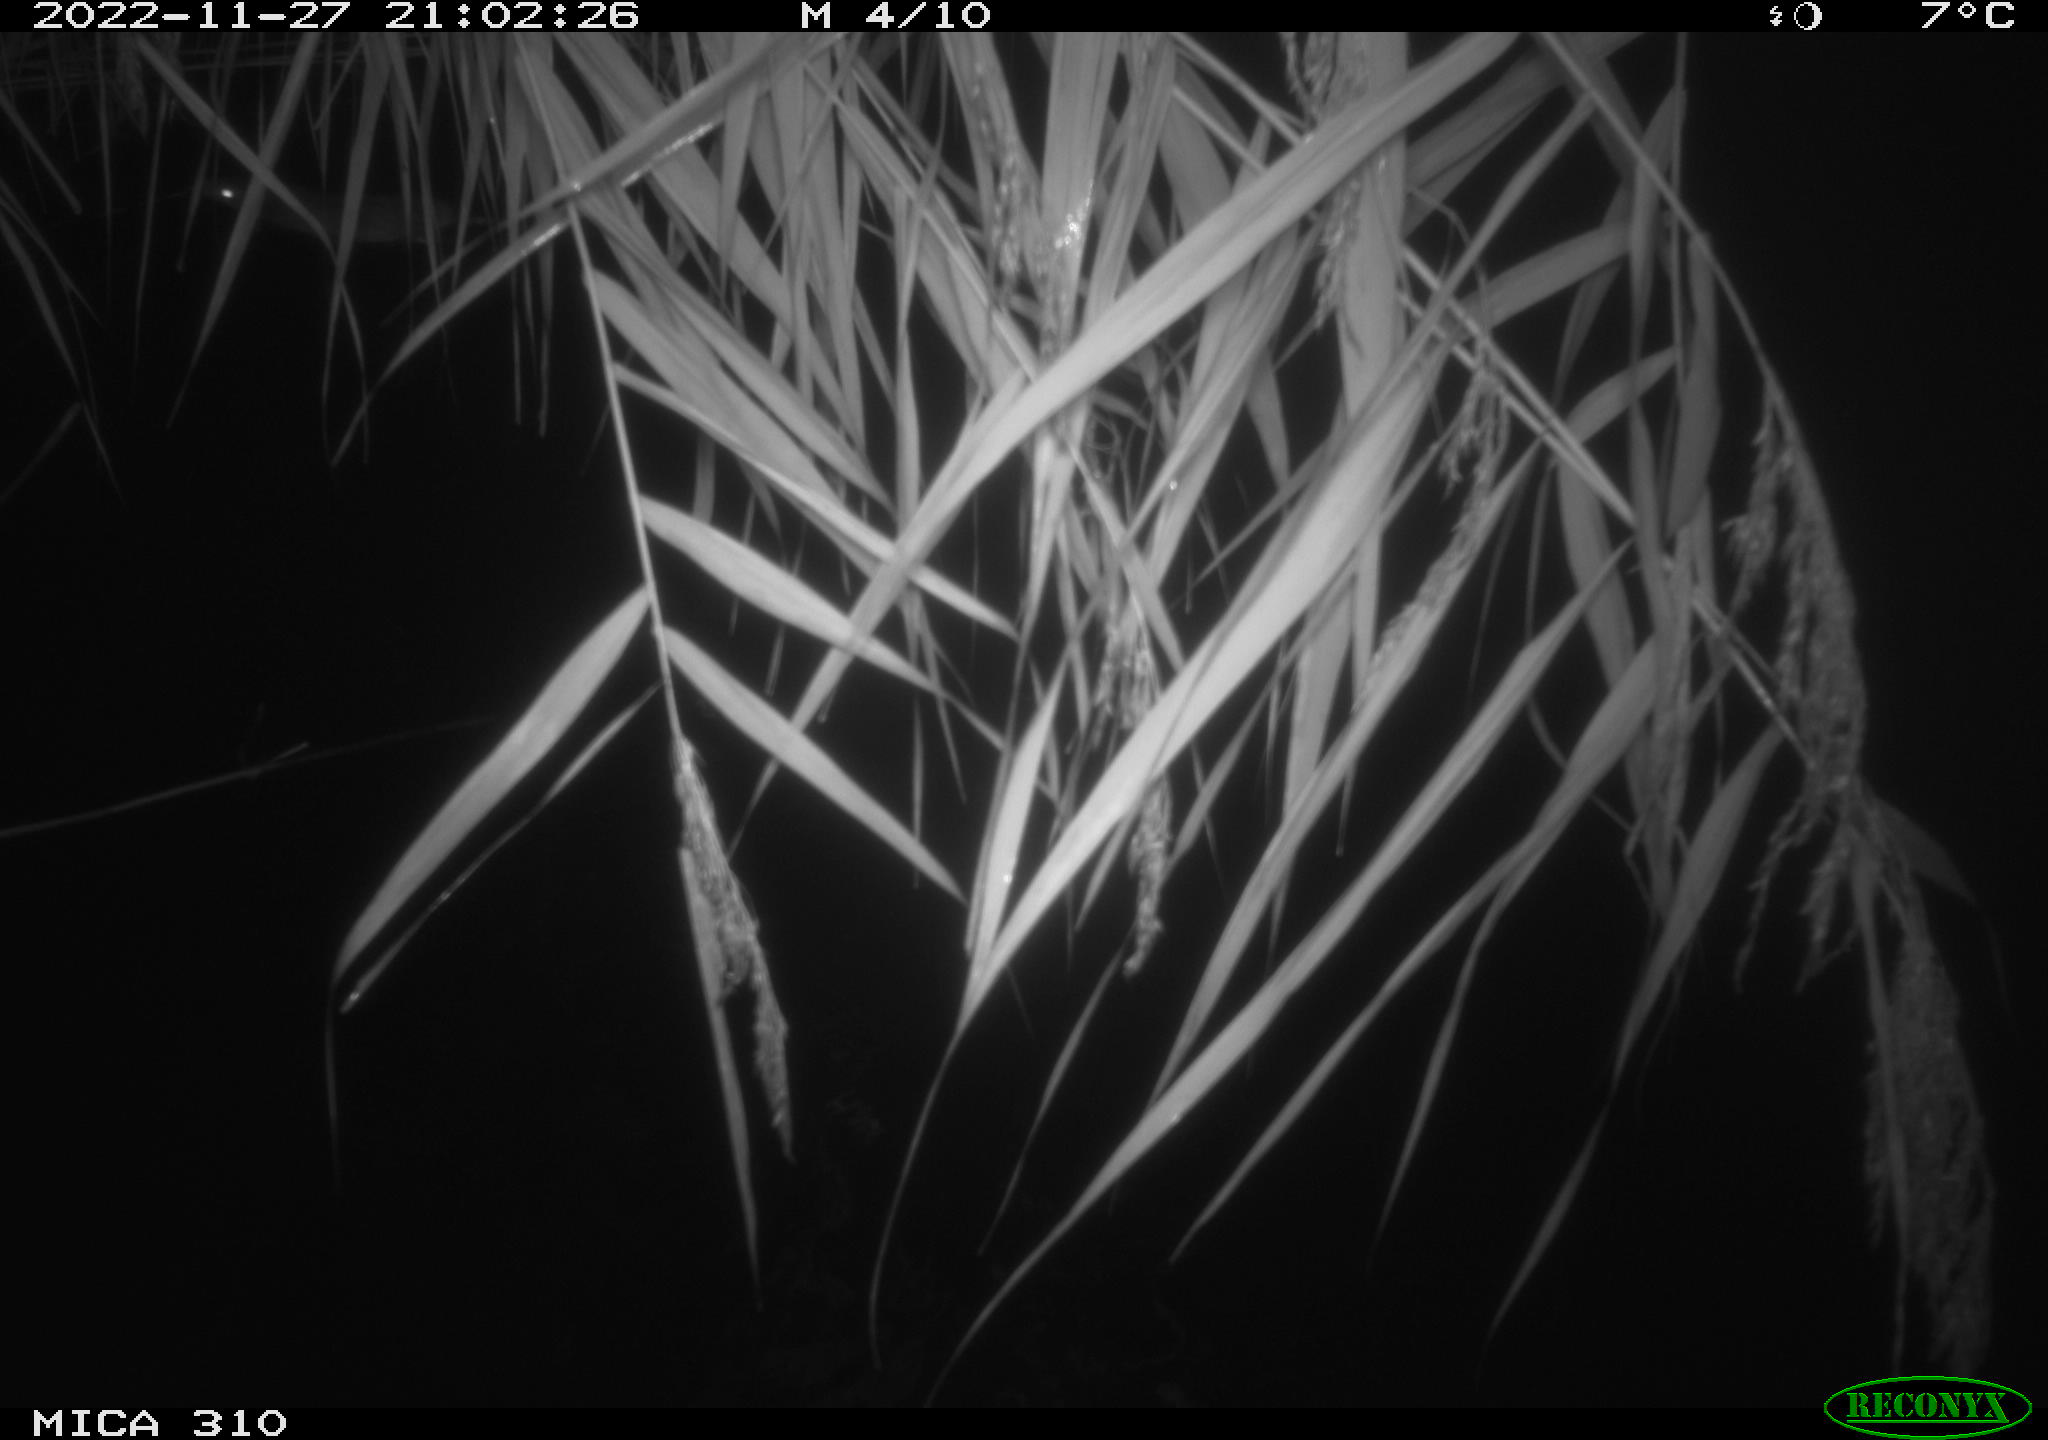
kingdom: Animalia
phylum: Chordata
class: Mammalia
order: Rodentia
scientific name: Rodentia
